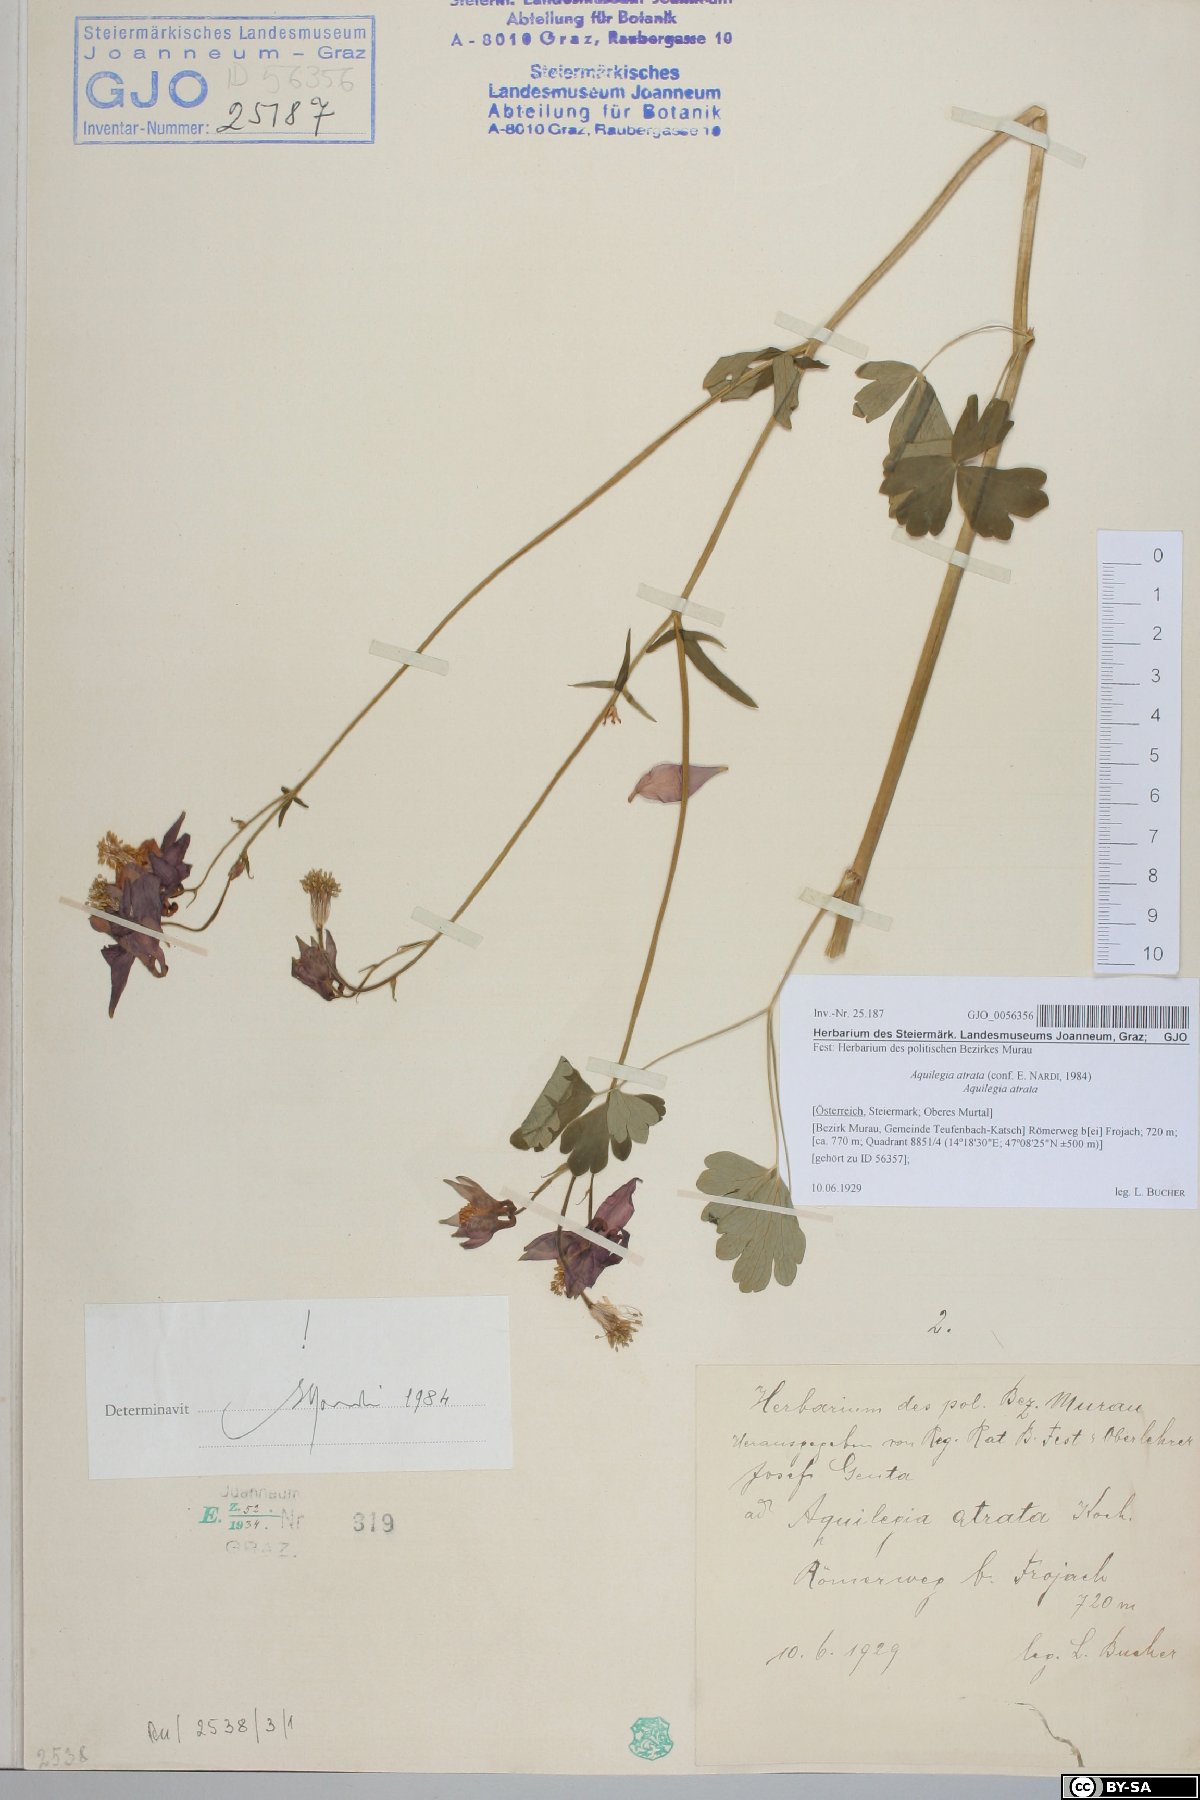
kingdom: Plantae
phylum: Tracheophyta
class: Magnoliopsida
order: Ranunculales
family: Ranunculaceae
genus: Aquilegia
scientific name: Aquilegia atrata
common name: Dark columbine
